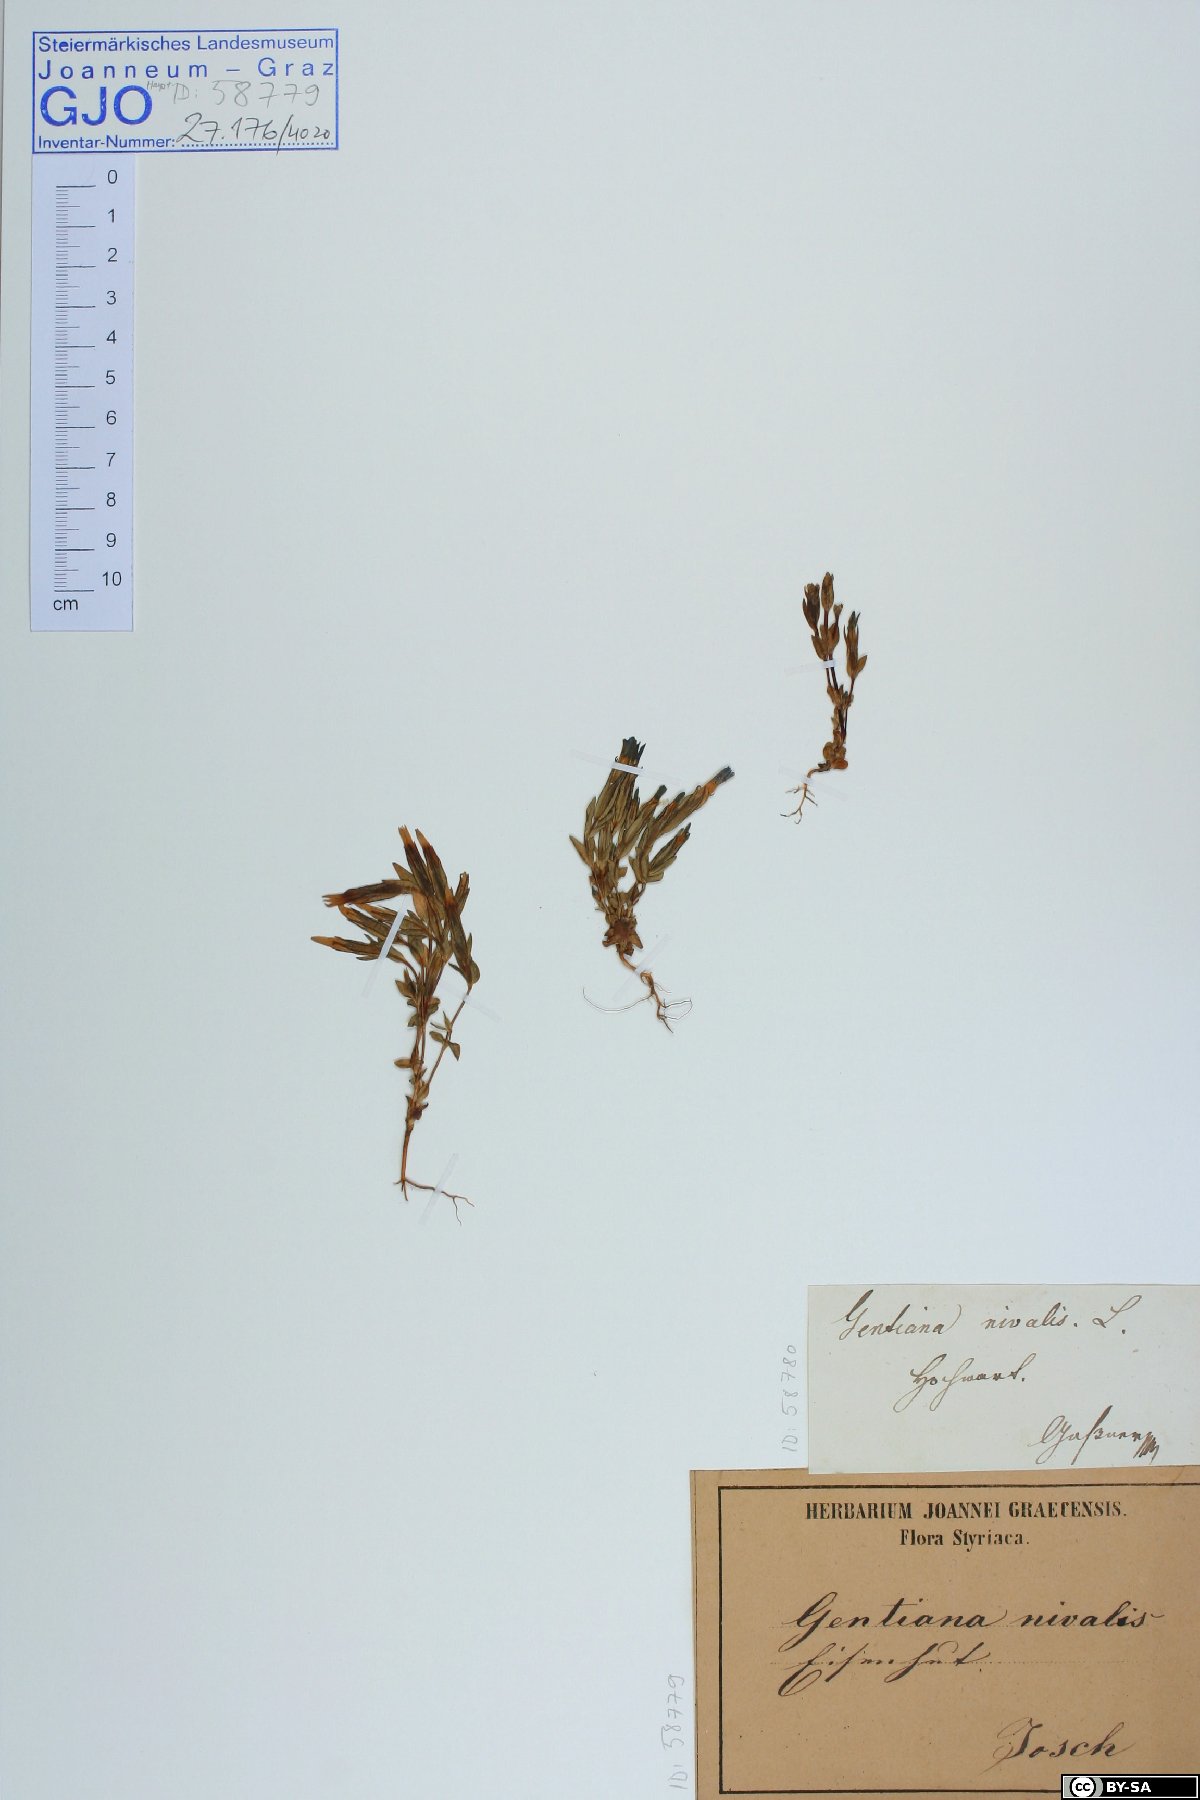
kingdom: Plantae
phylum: Tracheophyta
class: Magnoliopsida
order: Gentianales
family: Gentianaceae
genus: Gentiana
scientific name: Gentiana nivalis
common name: Alpine gentian
